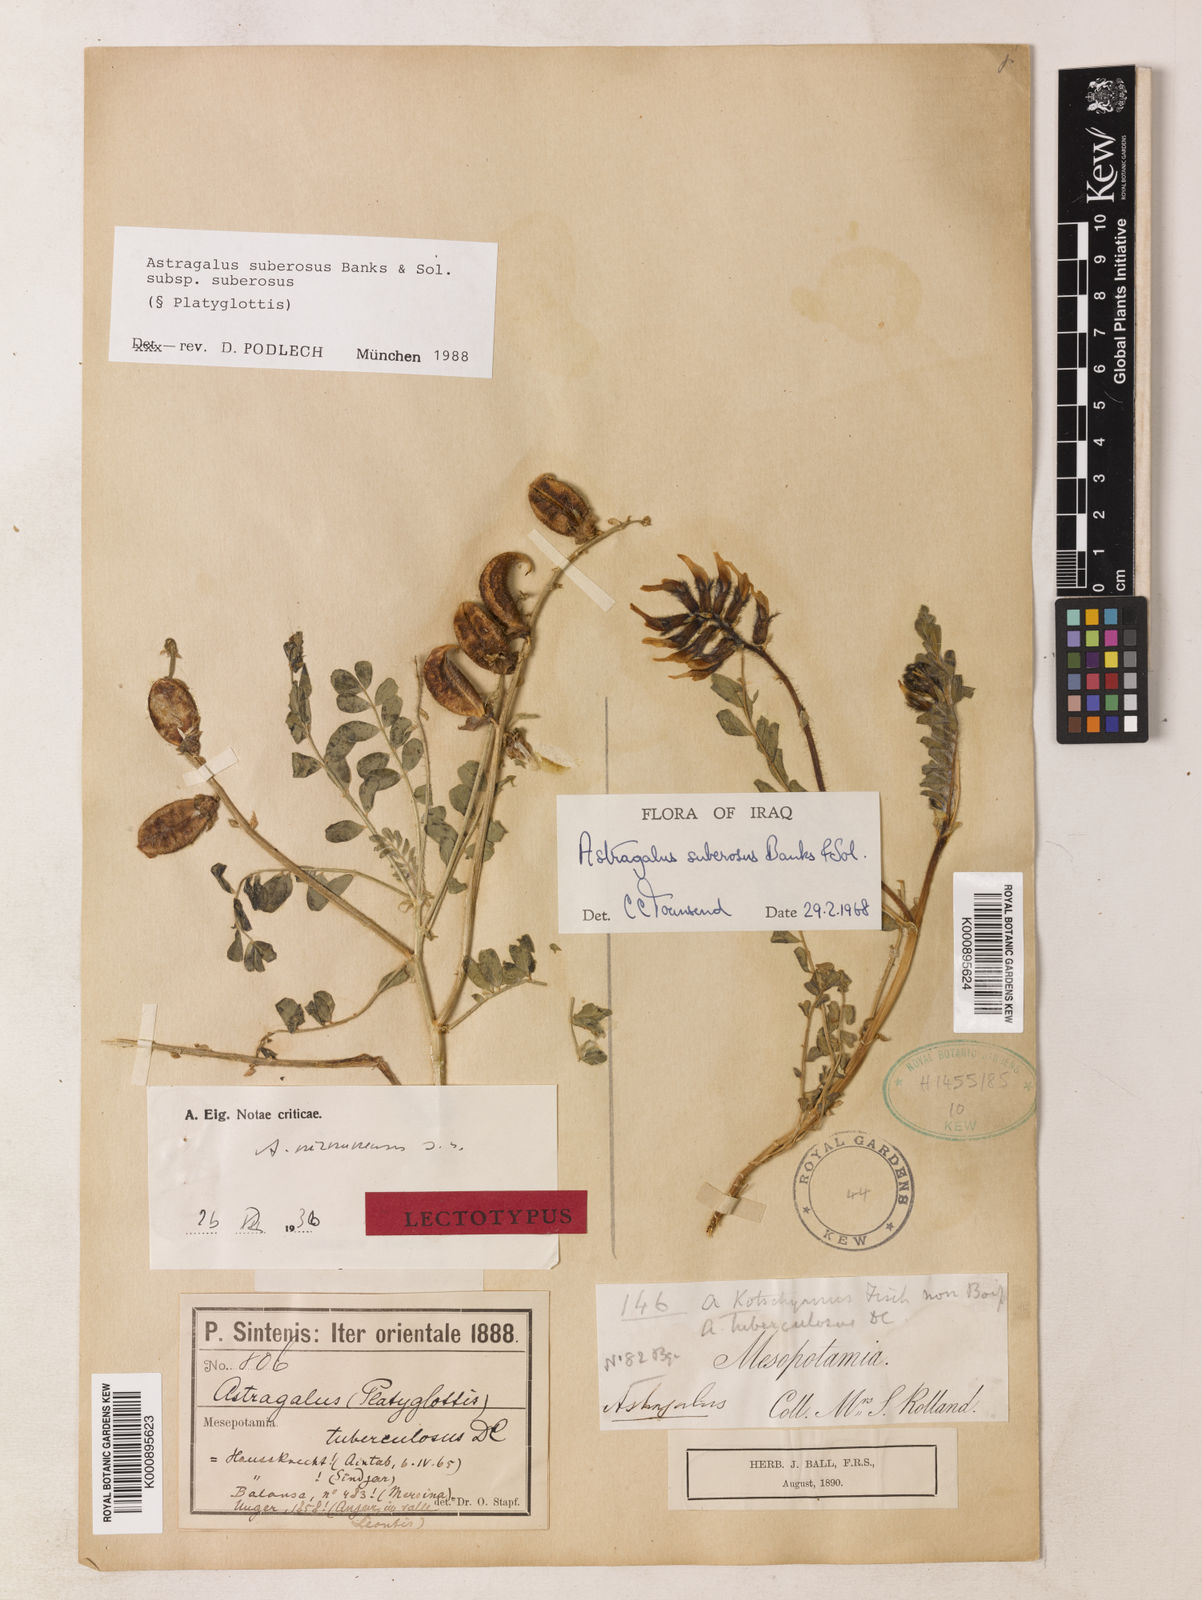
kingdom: Plantae
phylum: Tracheophyta
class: Magnoliopsida
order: Fabales
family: Fabaceae
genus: Astragalus
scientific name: Astragalus suberosus
